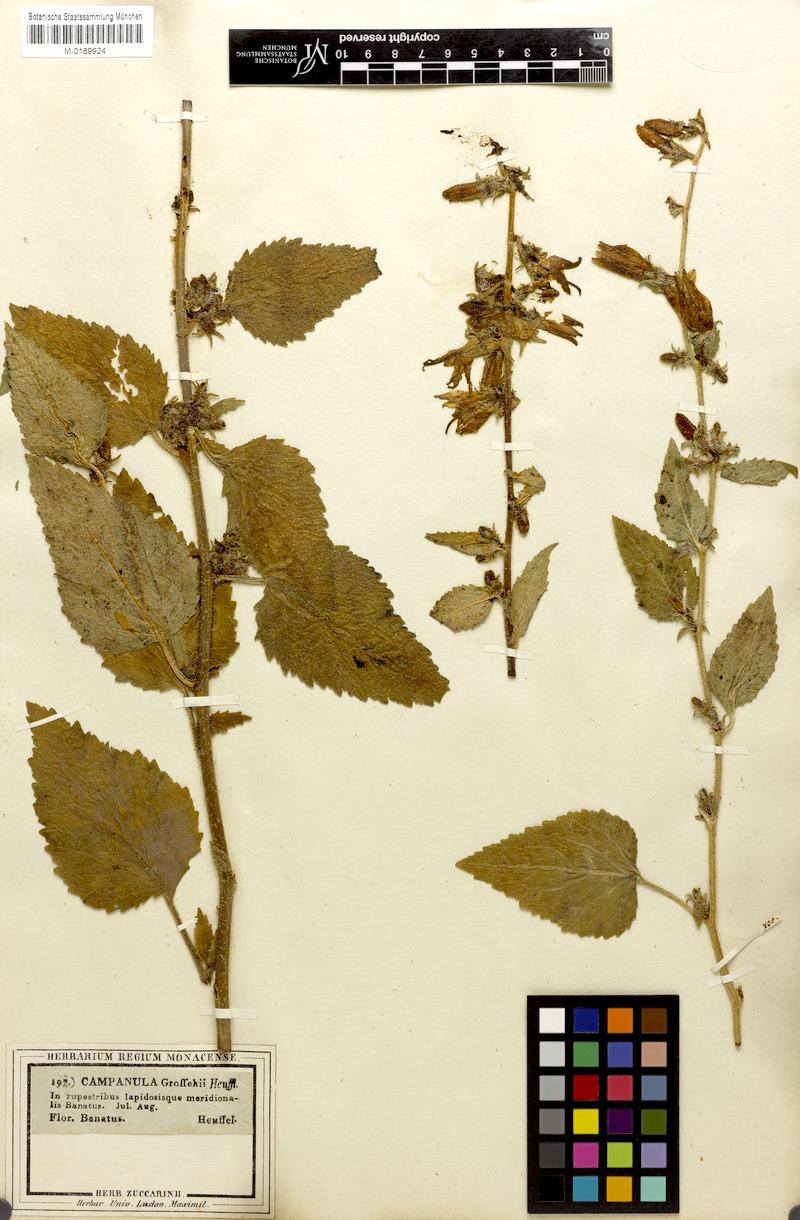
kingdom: Plantae
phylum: Tracheophyta
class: Magnoliopsida
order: Asterales
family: Campanulaceae
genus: Campanula
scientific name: Campanula grossekii
